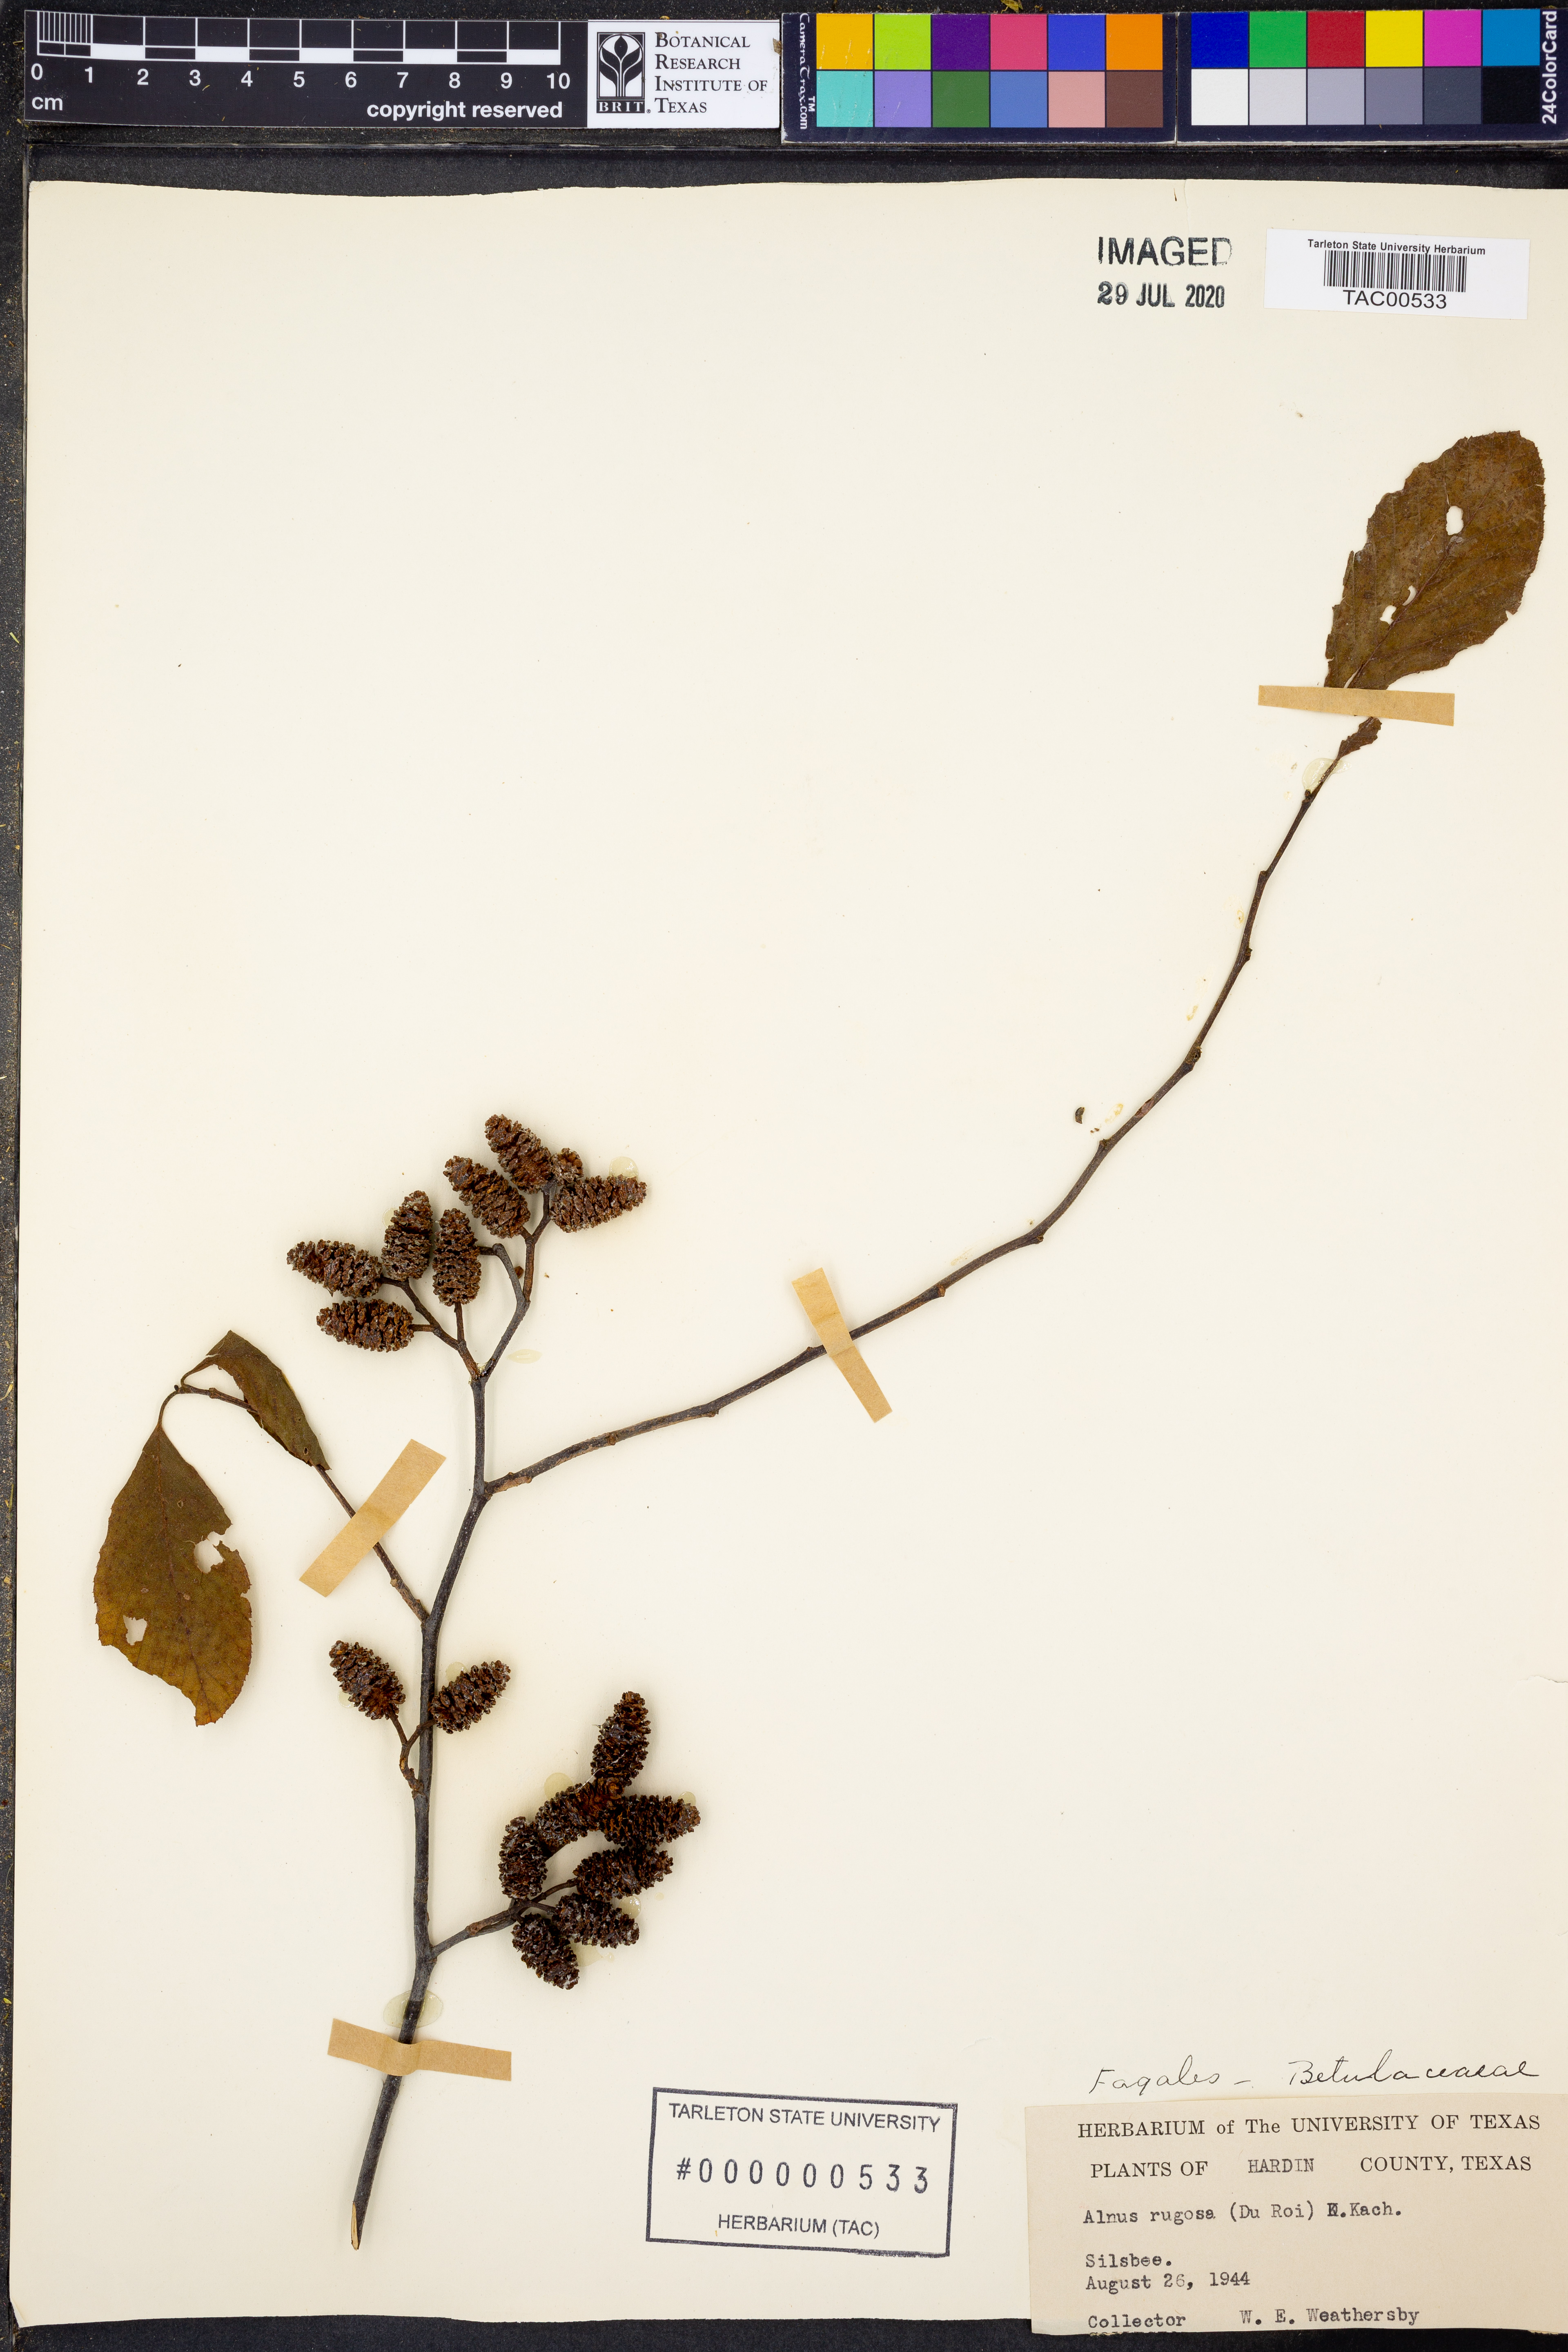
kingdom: Plantae
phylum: Tracheophyta
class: Magnoliopsida
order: Fagales
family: Betulaceae
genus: Alnus
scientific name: Alnus incana
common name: Grey alder
